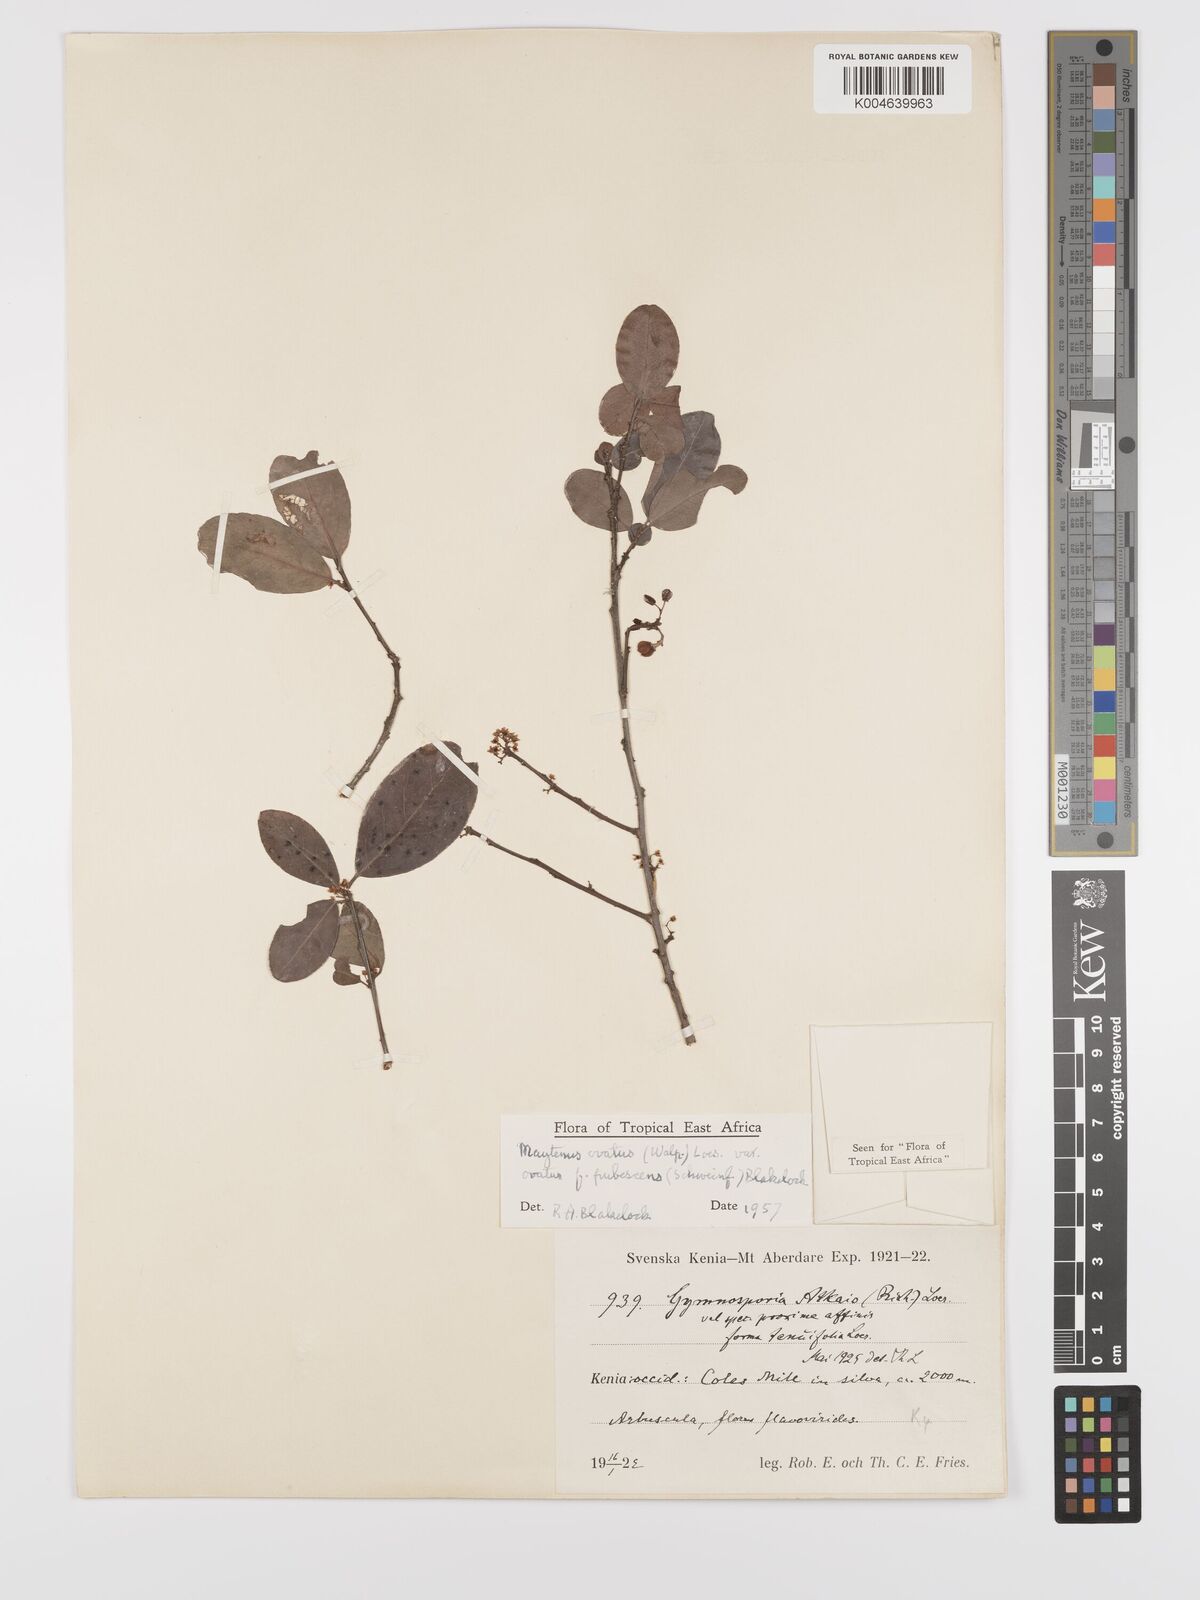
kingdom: Plantae
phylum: Tracheophyta
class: Magnoliopsida
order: Celastrales
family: Celastraceae
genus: Gymnosporia
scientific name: Gymnosporia
